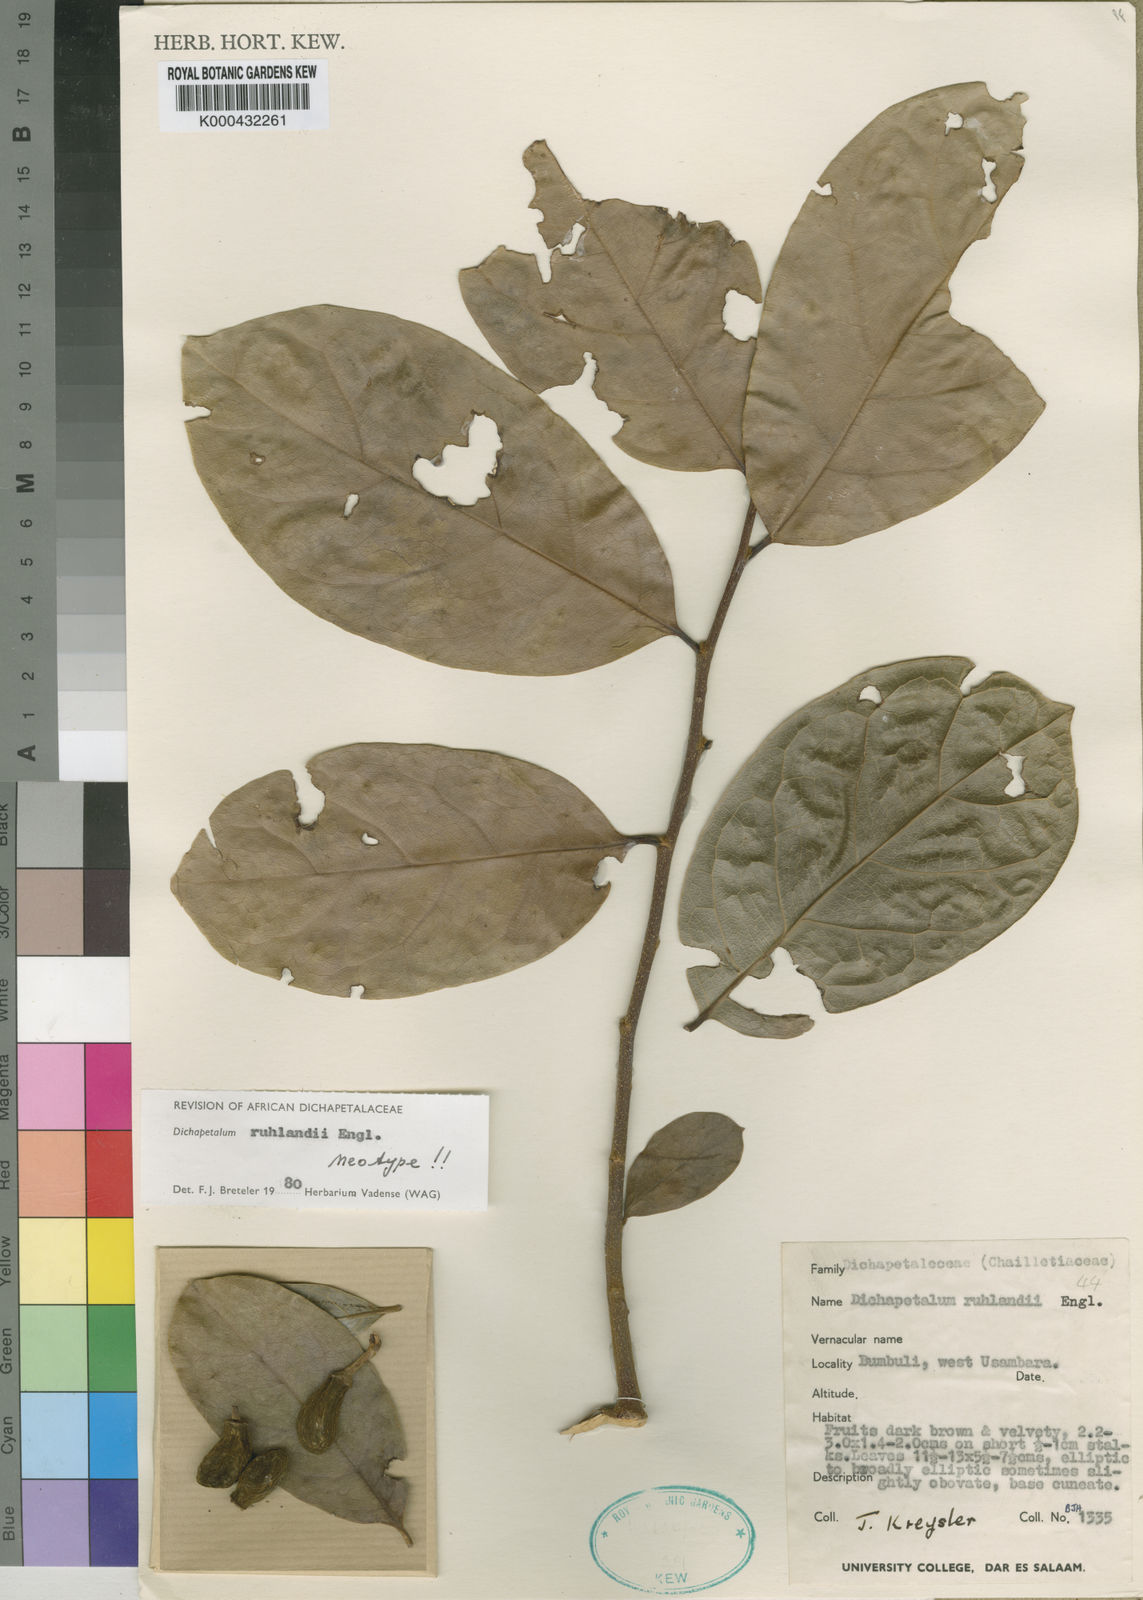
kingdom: Plantae
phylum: Tracheophyta
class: Magnoliopsida
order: Malpighiales
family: Dichapetalaceae
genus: Dichapetalum
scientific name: Dichapetalum ruhlandii
